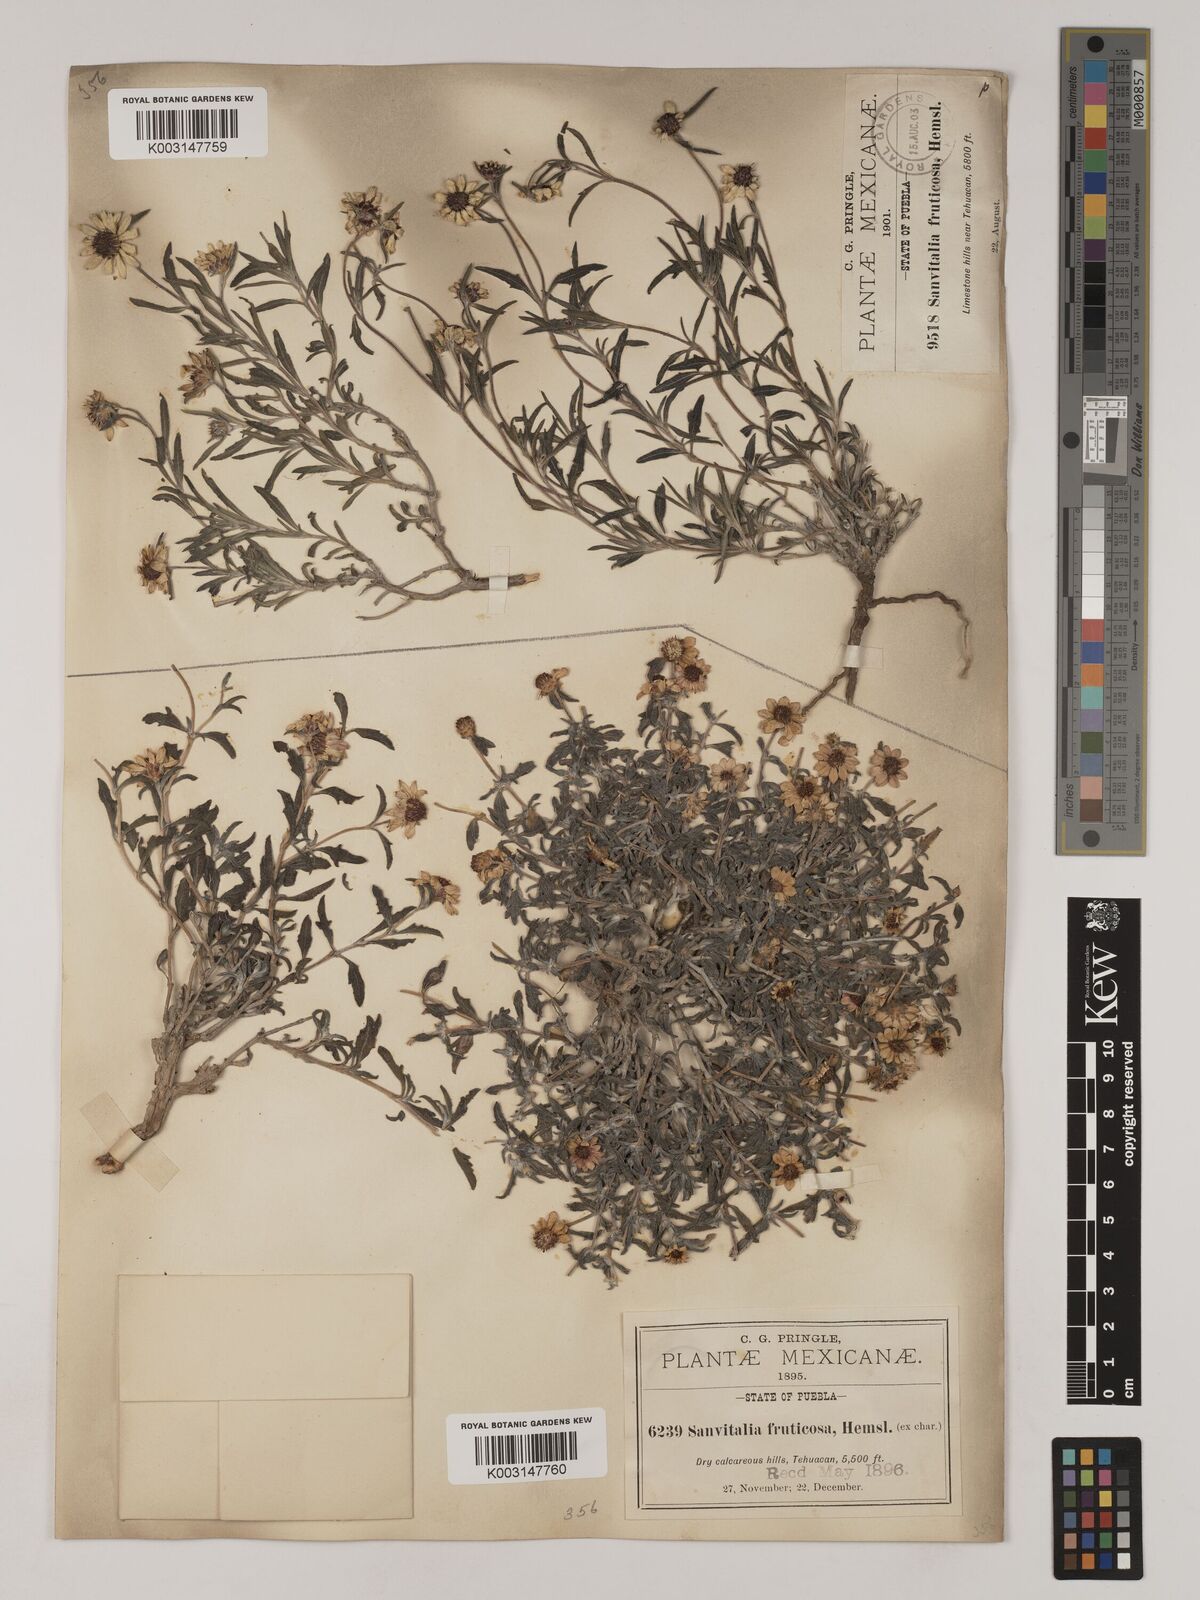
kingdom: Plantae
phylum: Tracheophyta
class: Magnoliopsida
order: Asterales
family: Asteraceae
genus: Sanvitalia
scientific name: Sanvitalia fruticosa
